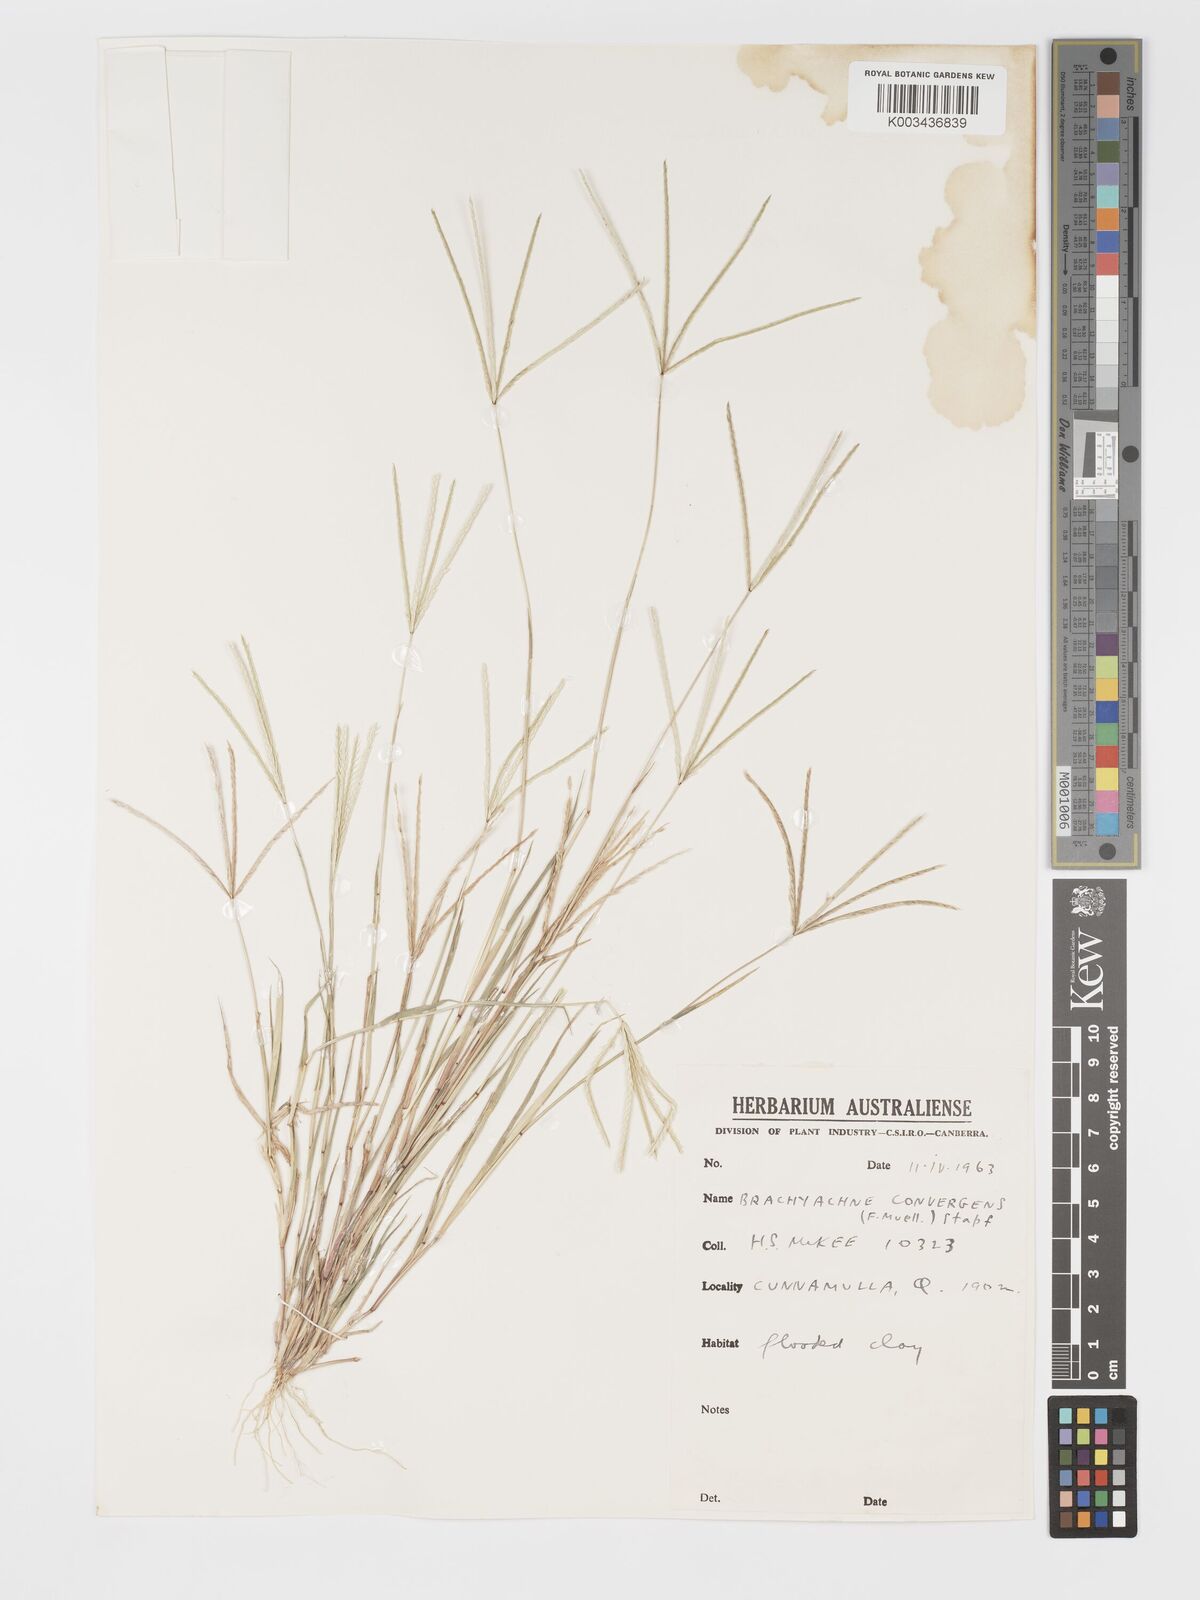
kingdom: Plantae
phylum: Tracheophyta
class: Liliopsida
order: Poales
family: Poaceae
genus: Cynodon
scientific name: Cynodon convergens
